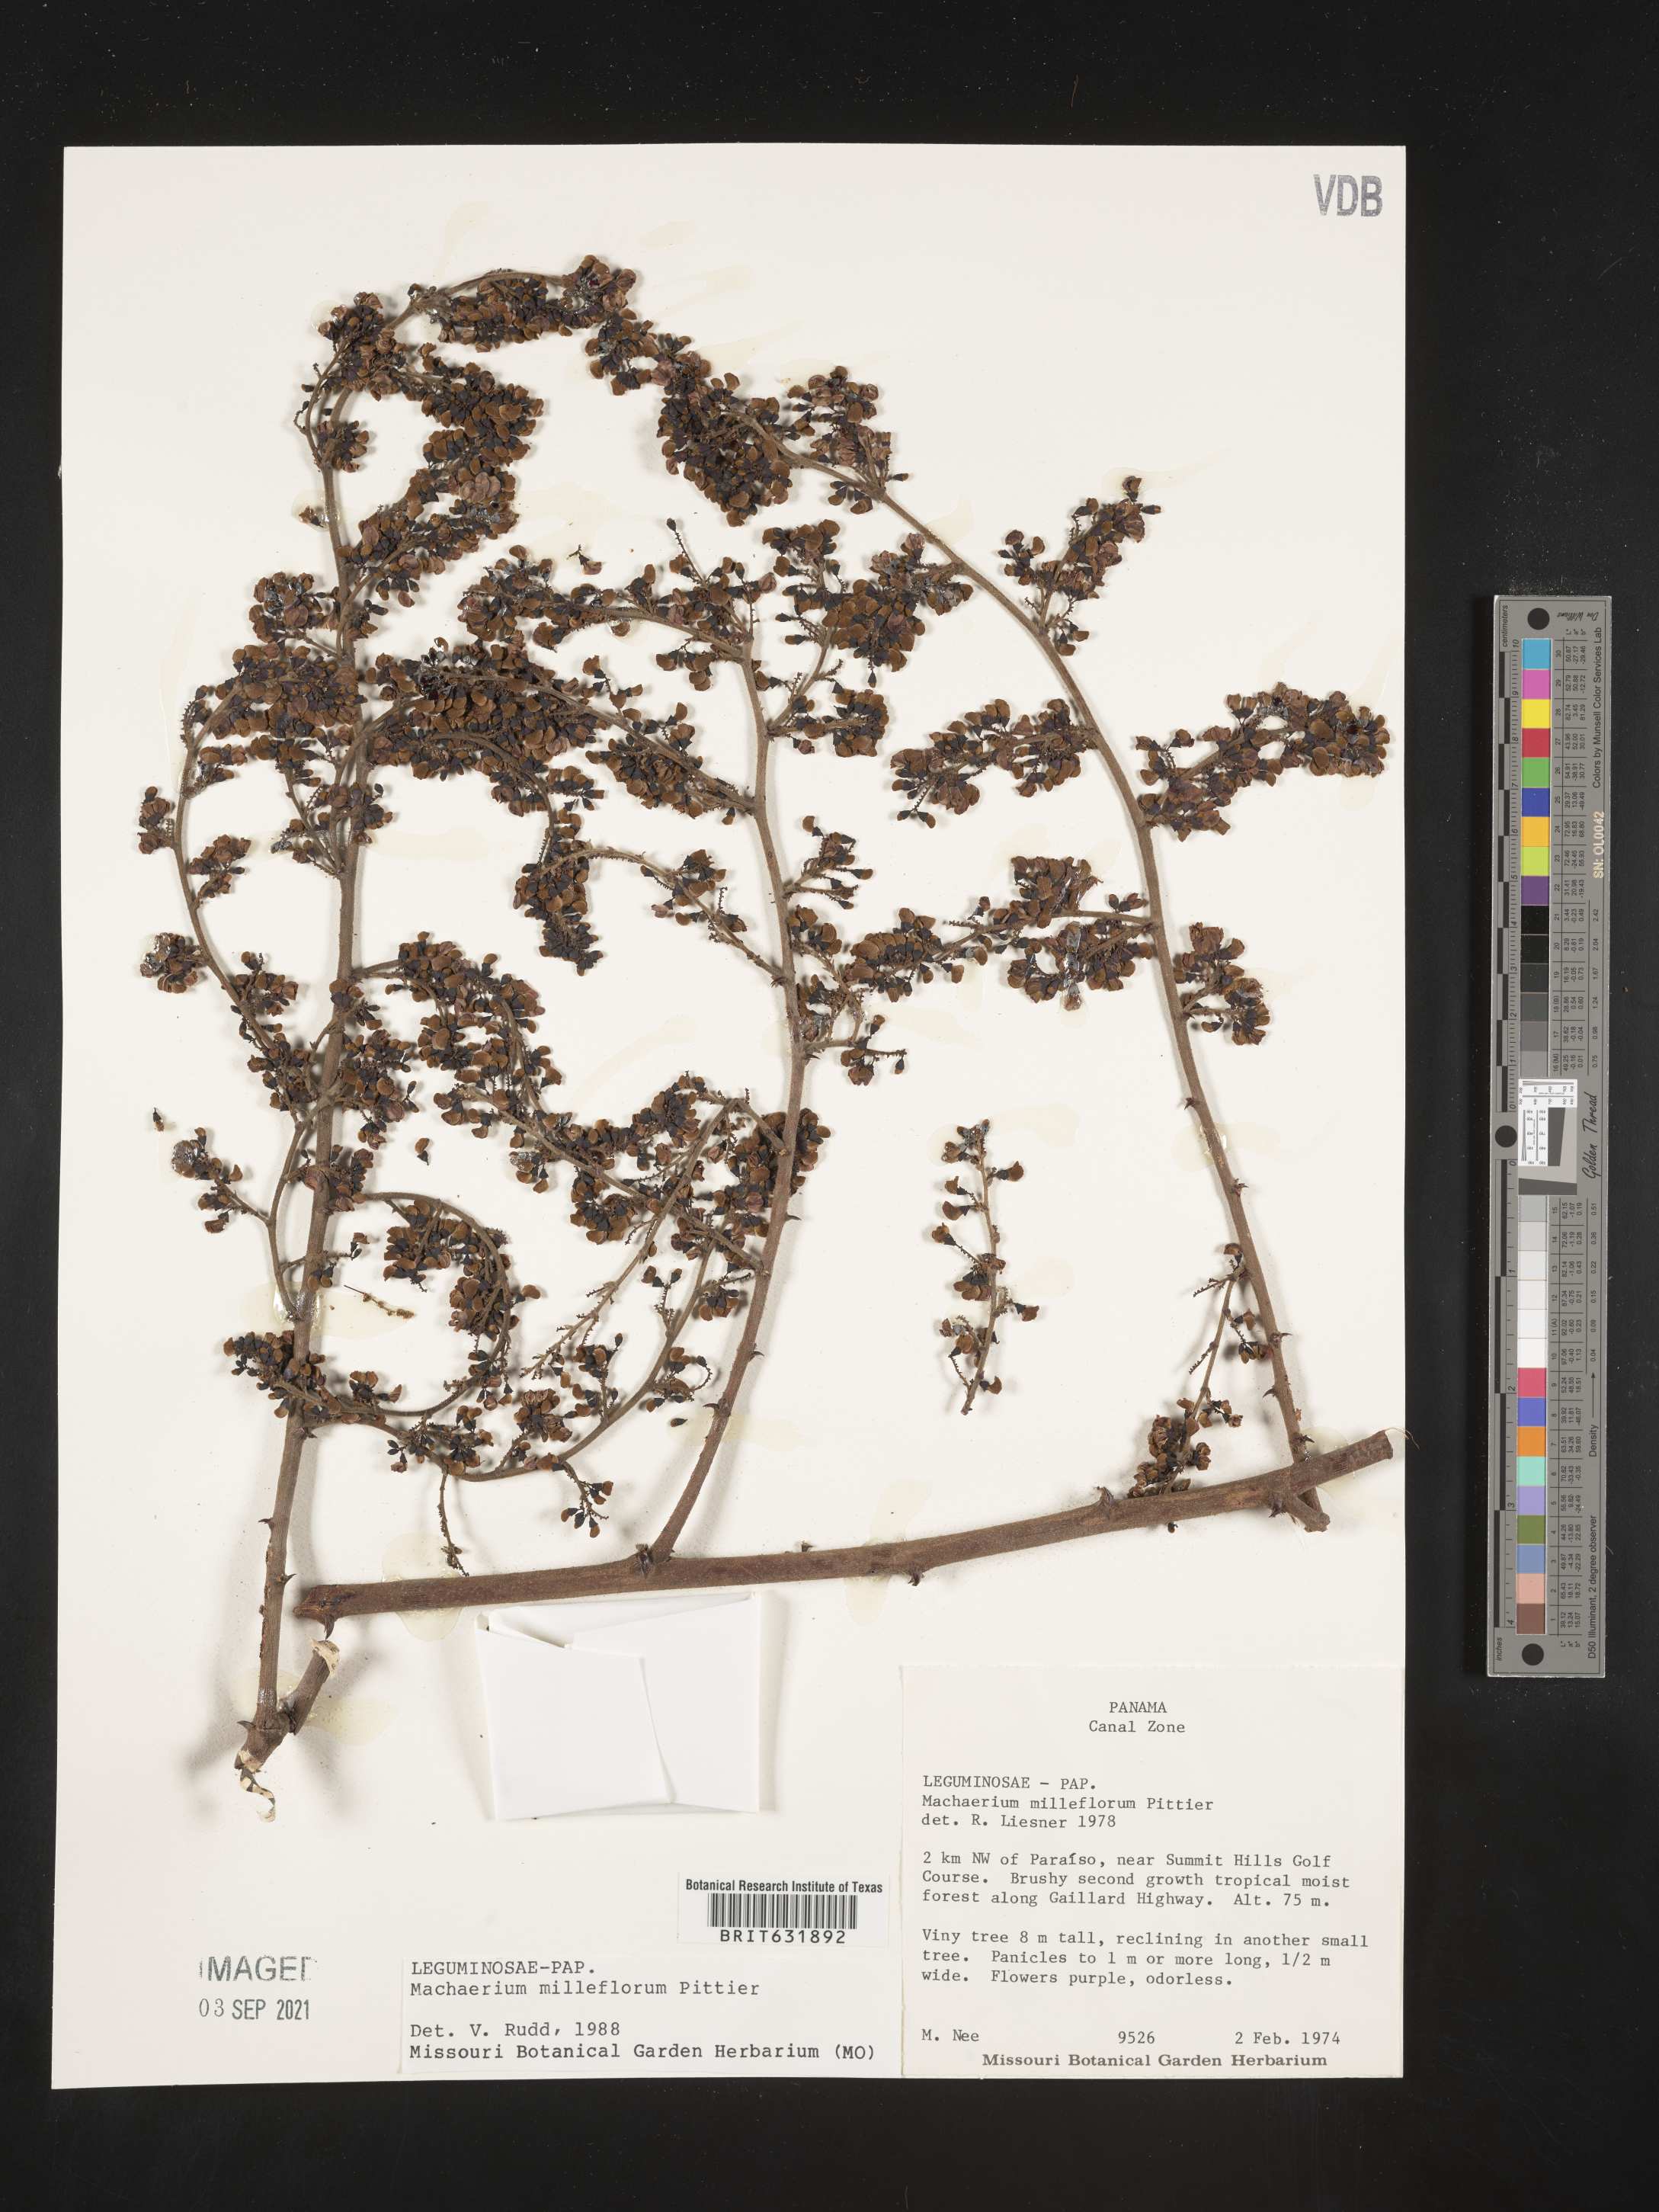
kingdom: Plantae
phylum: Tracheophyta
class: Magnoliopsida
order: Fabales
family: Fabaceae
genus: Machaerium
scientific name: Machaerium
